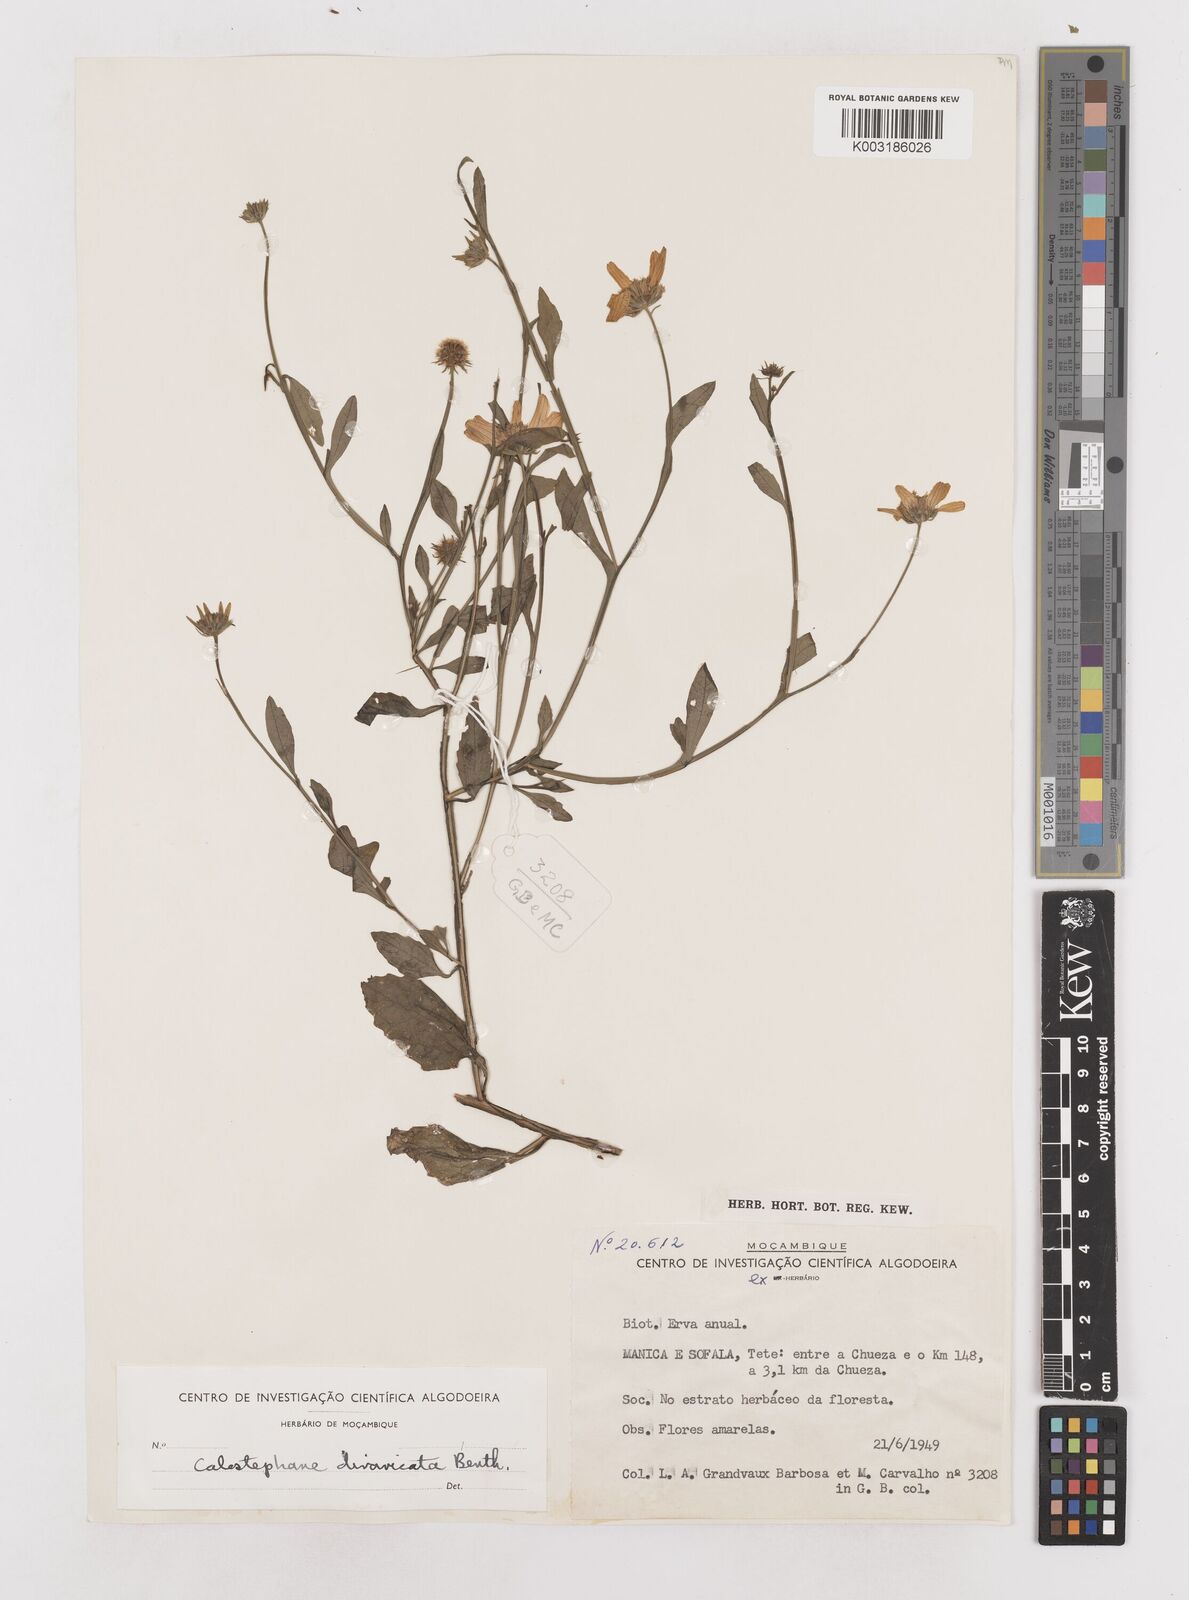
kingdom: Plantae
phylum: Tracheophyta
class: Magnoliopsida
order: Asterales
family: Asteraceae
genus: Calostephane
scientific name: Calostephane divaricata
